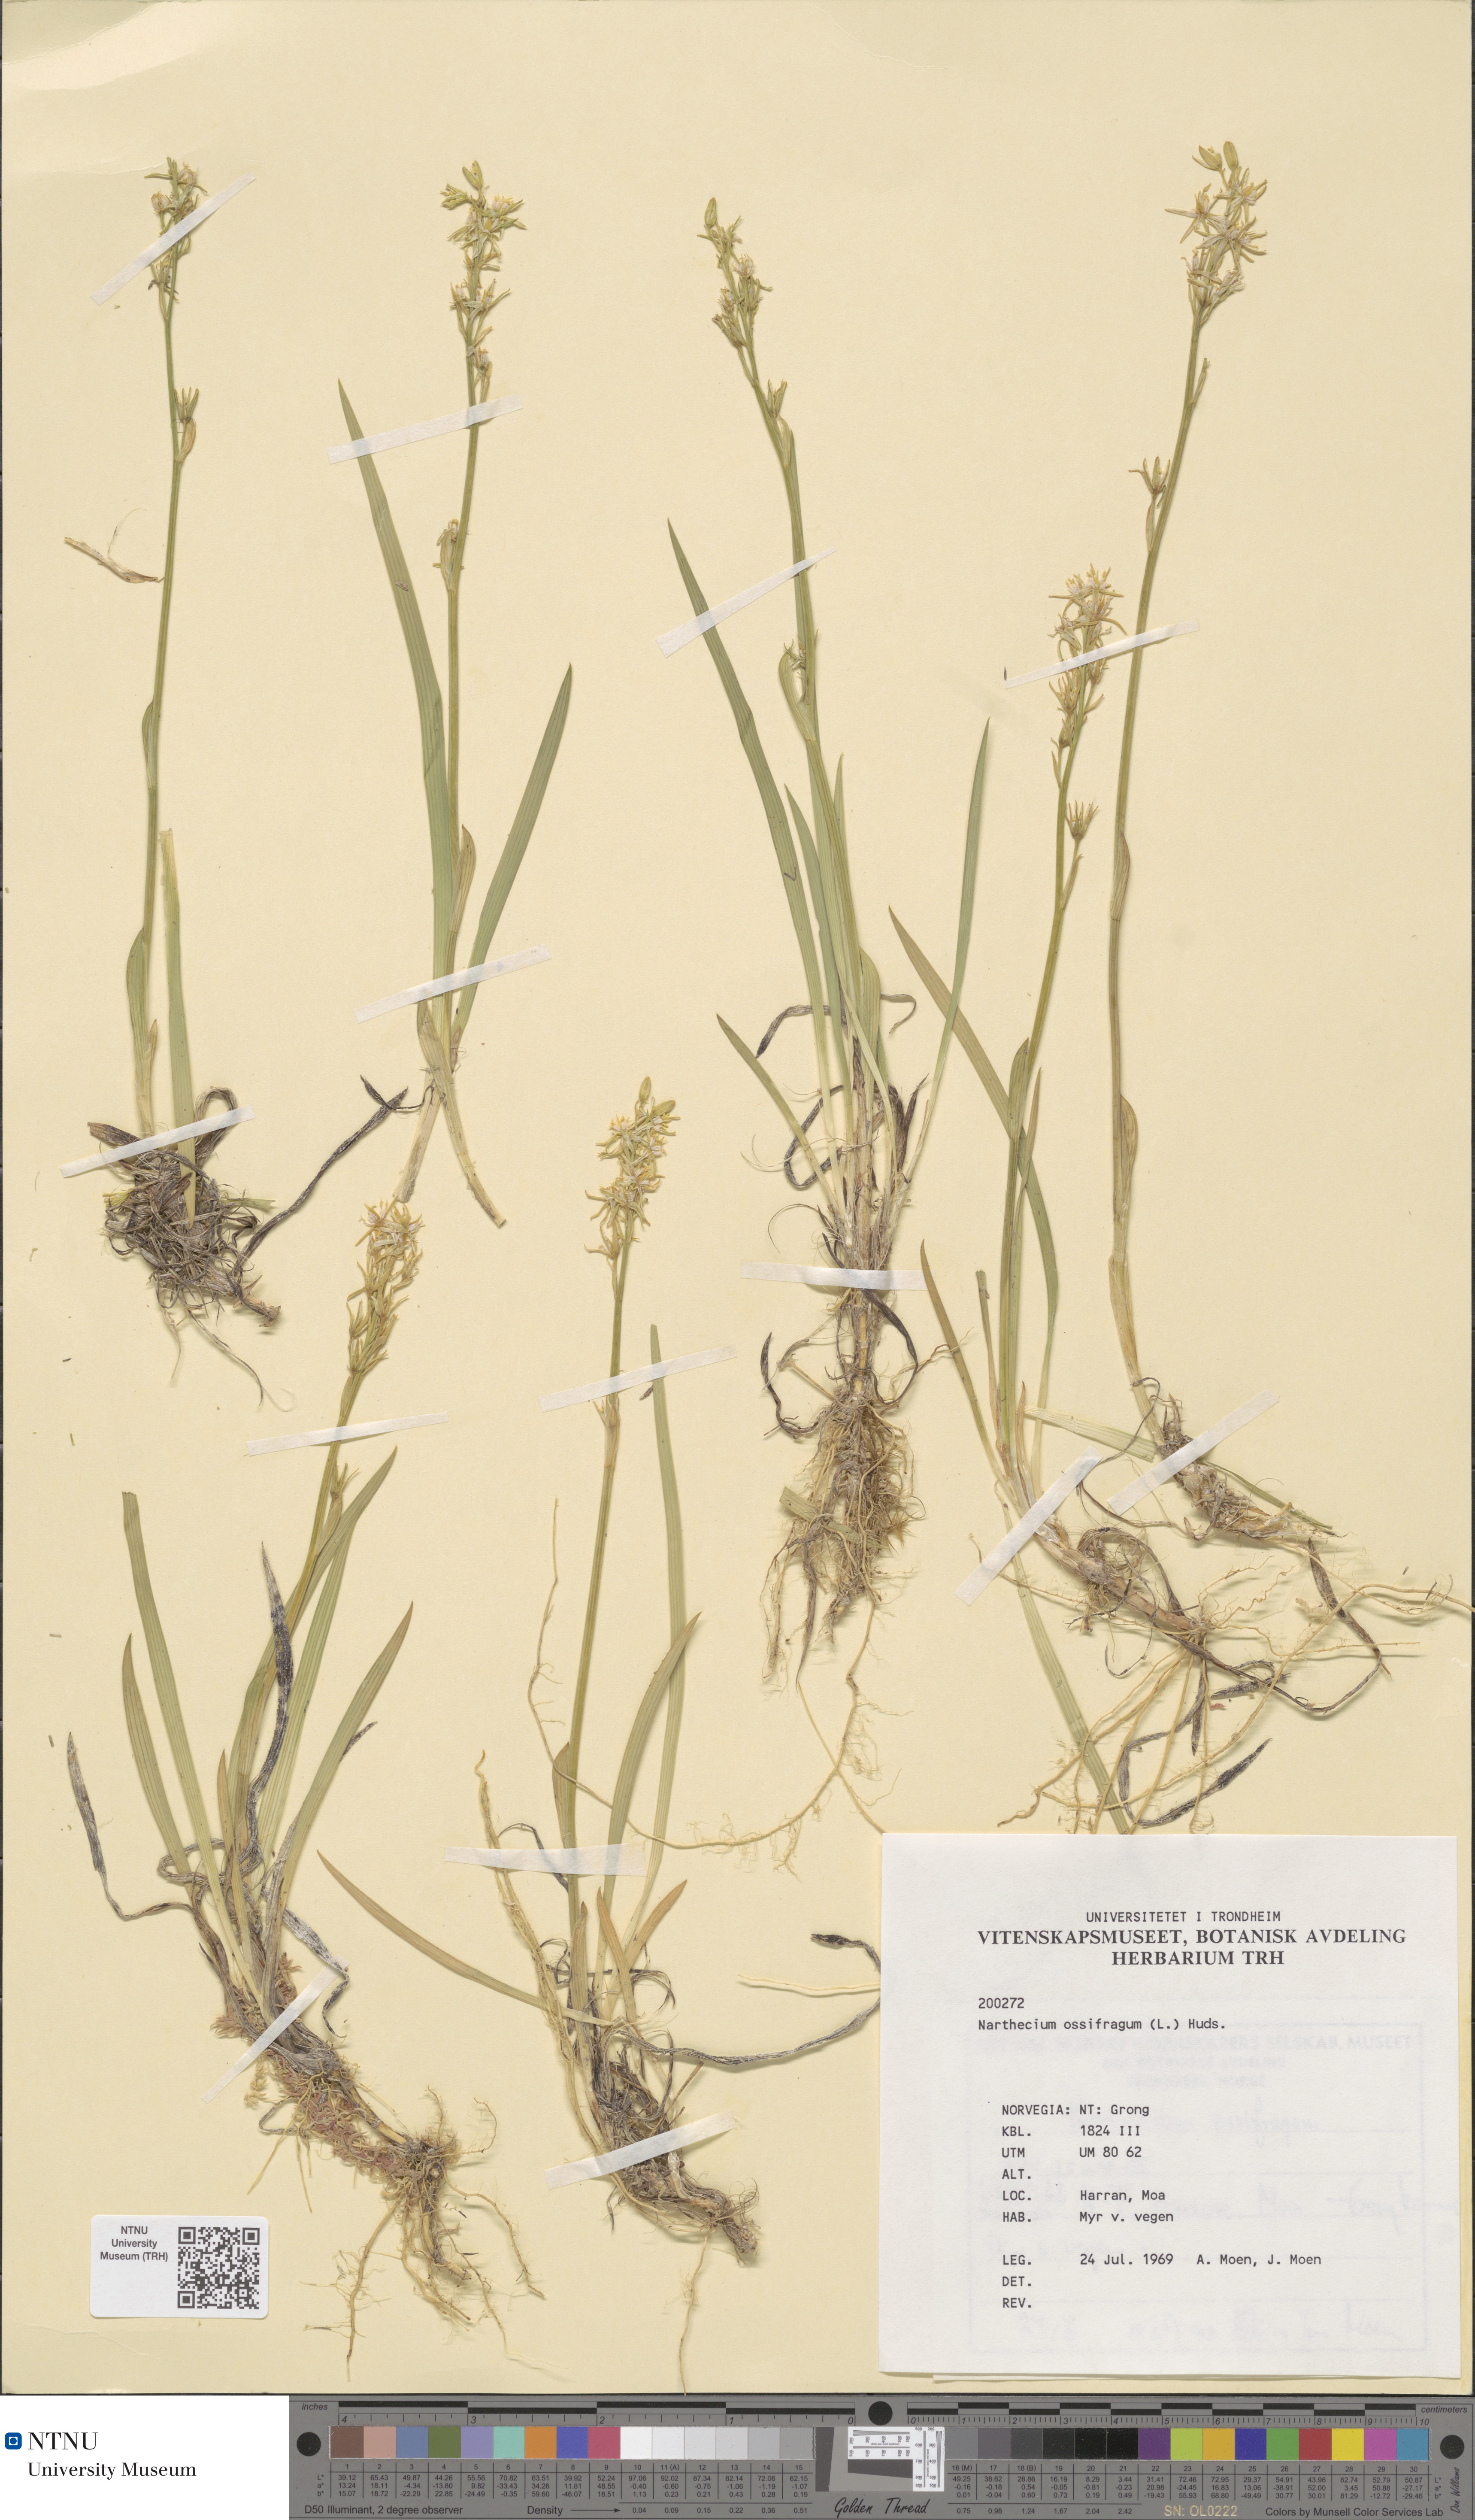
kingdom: Plantae
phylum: Tracheophyta
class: Liliopsida
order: Dioscoreales
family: Nartheciaceae
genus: Narthecium
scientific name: Narthecium ossifragum
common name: Bog asphodel
